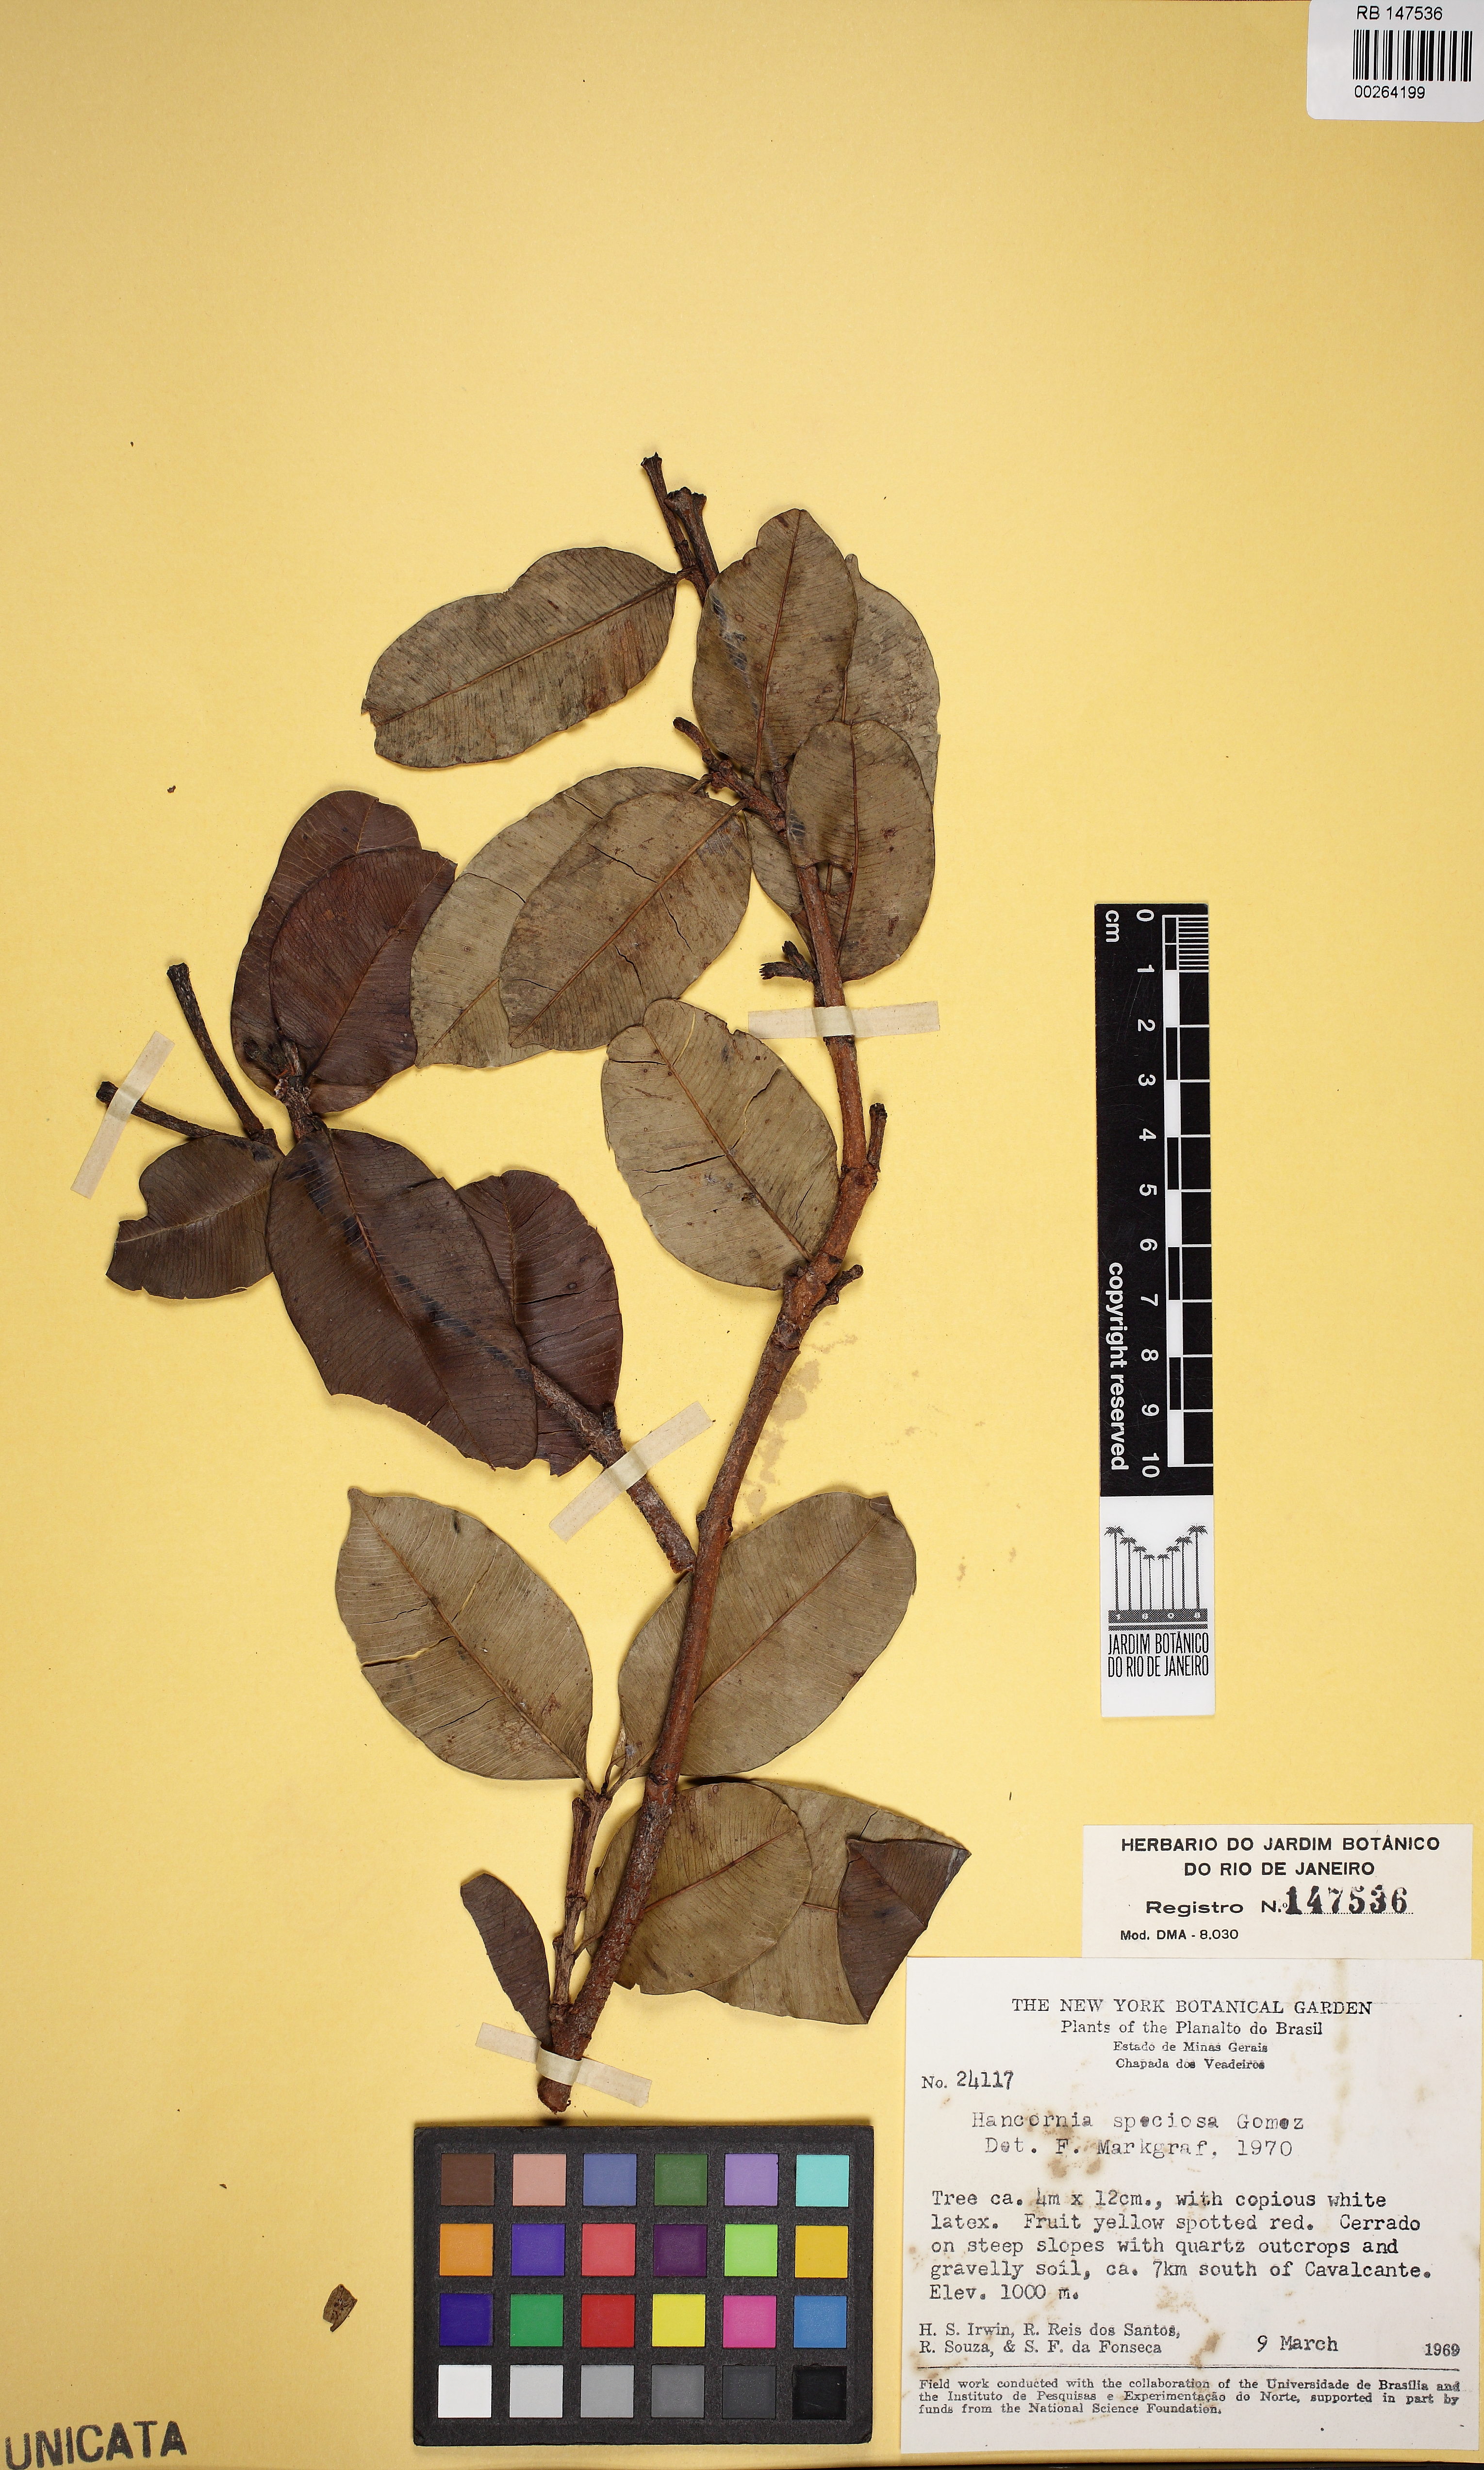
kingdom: Plantae
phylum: Tracheophyta
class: Magnoliopsida
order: Gentianales
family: Apocynaceae
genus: Hancornia
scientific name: Hancornia speciosa
